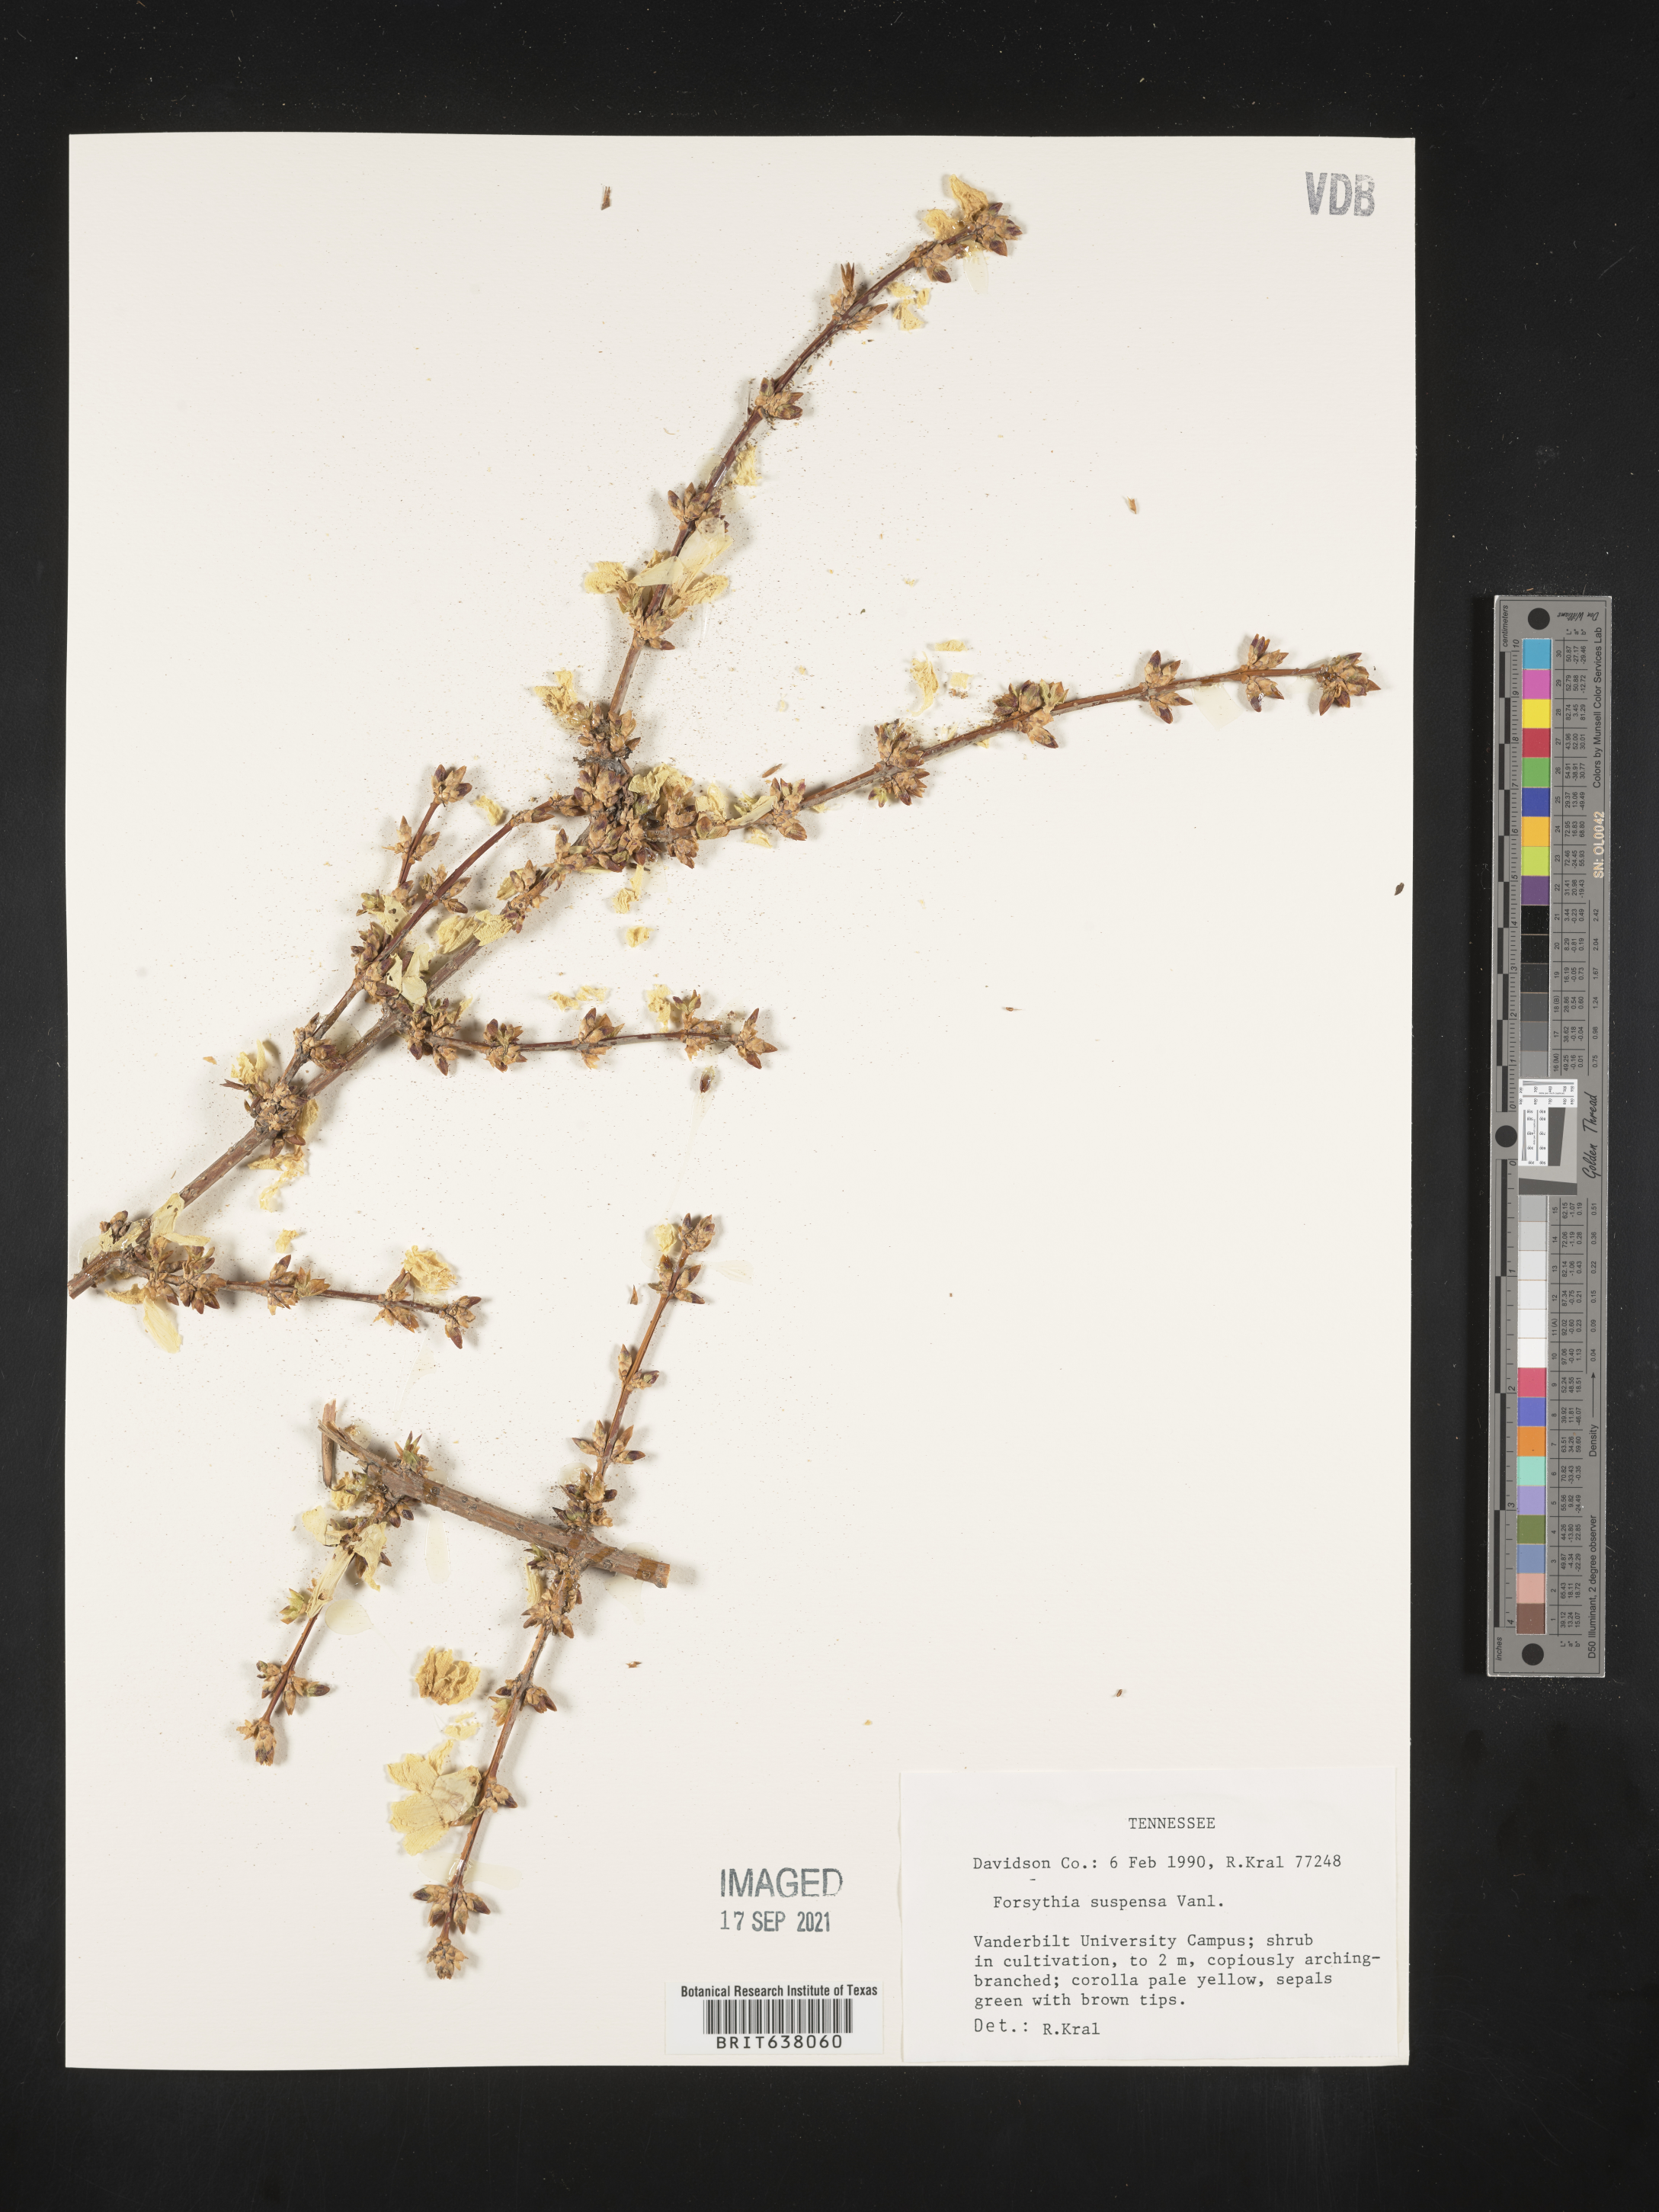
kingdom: Plantae
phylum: Tracheophyta
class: Magnoliopsida
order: Lamiales
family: Oleaceae
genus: Forsythia
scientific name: Forsythia
